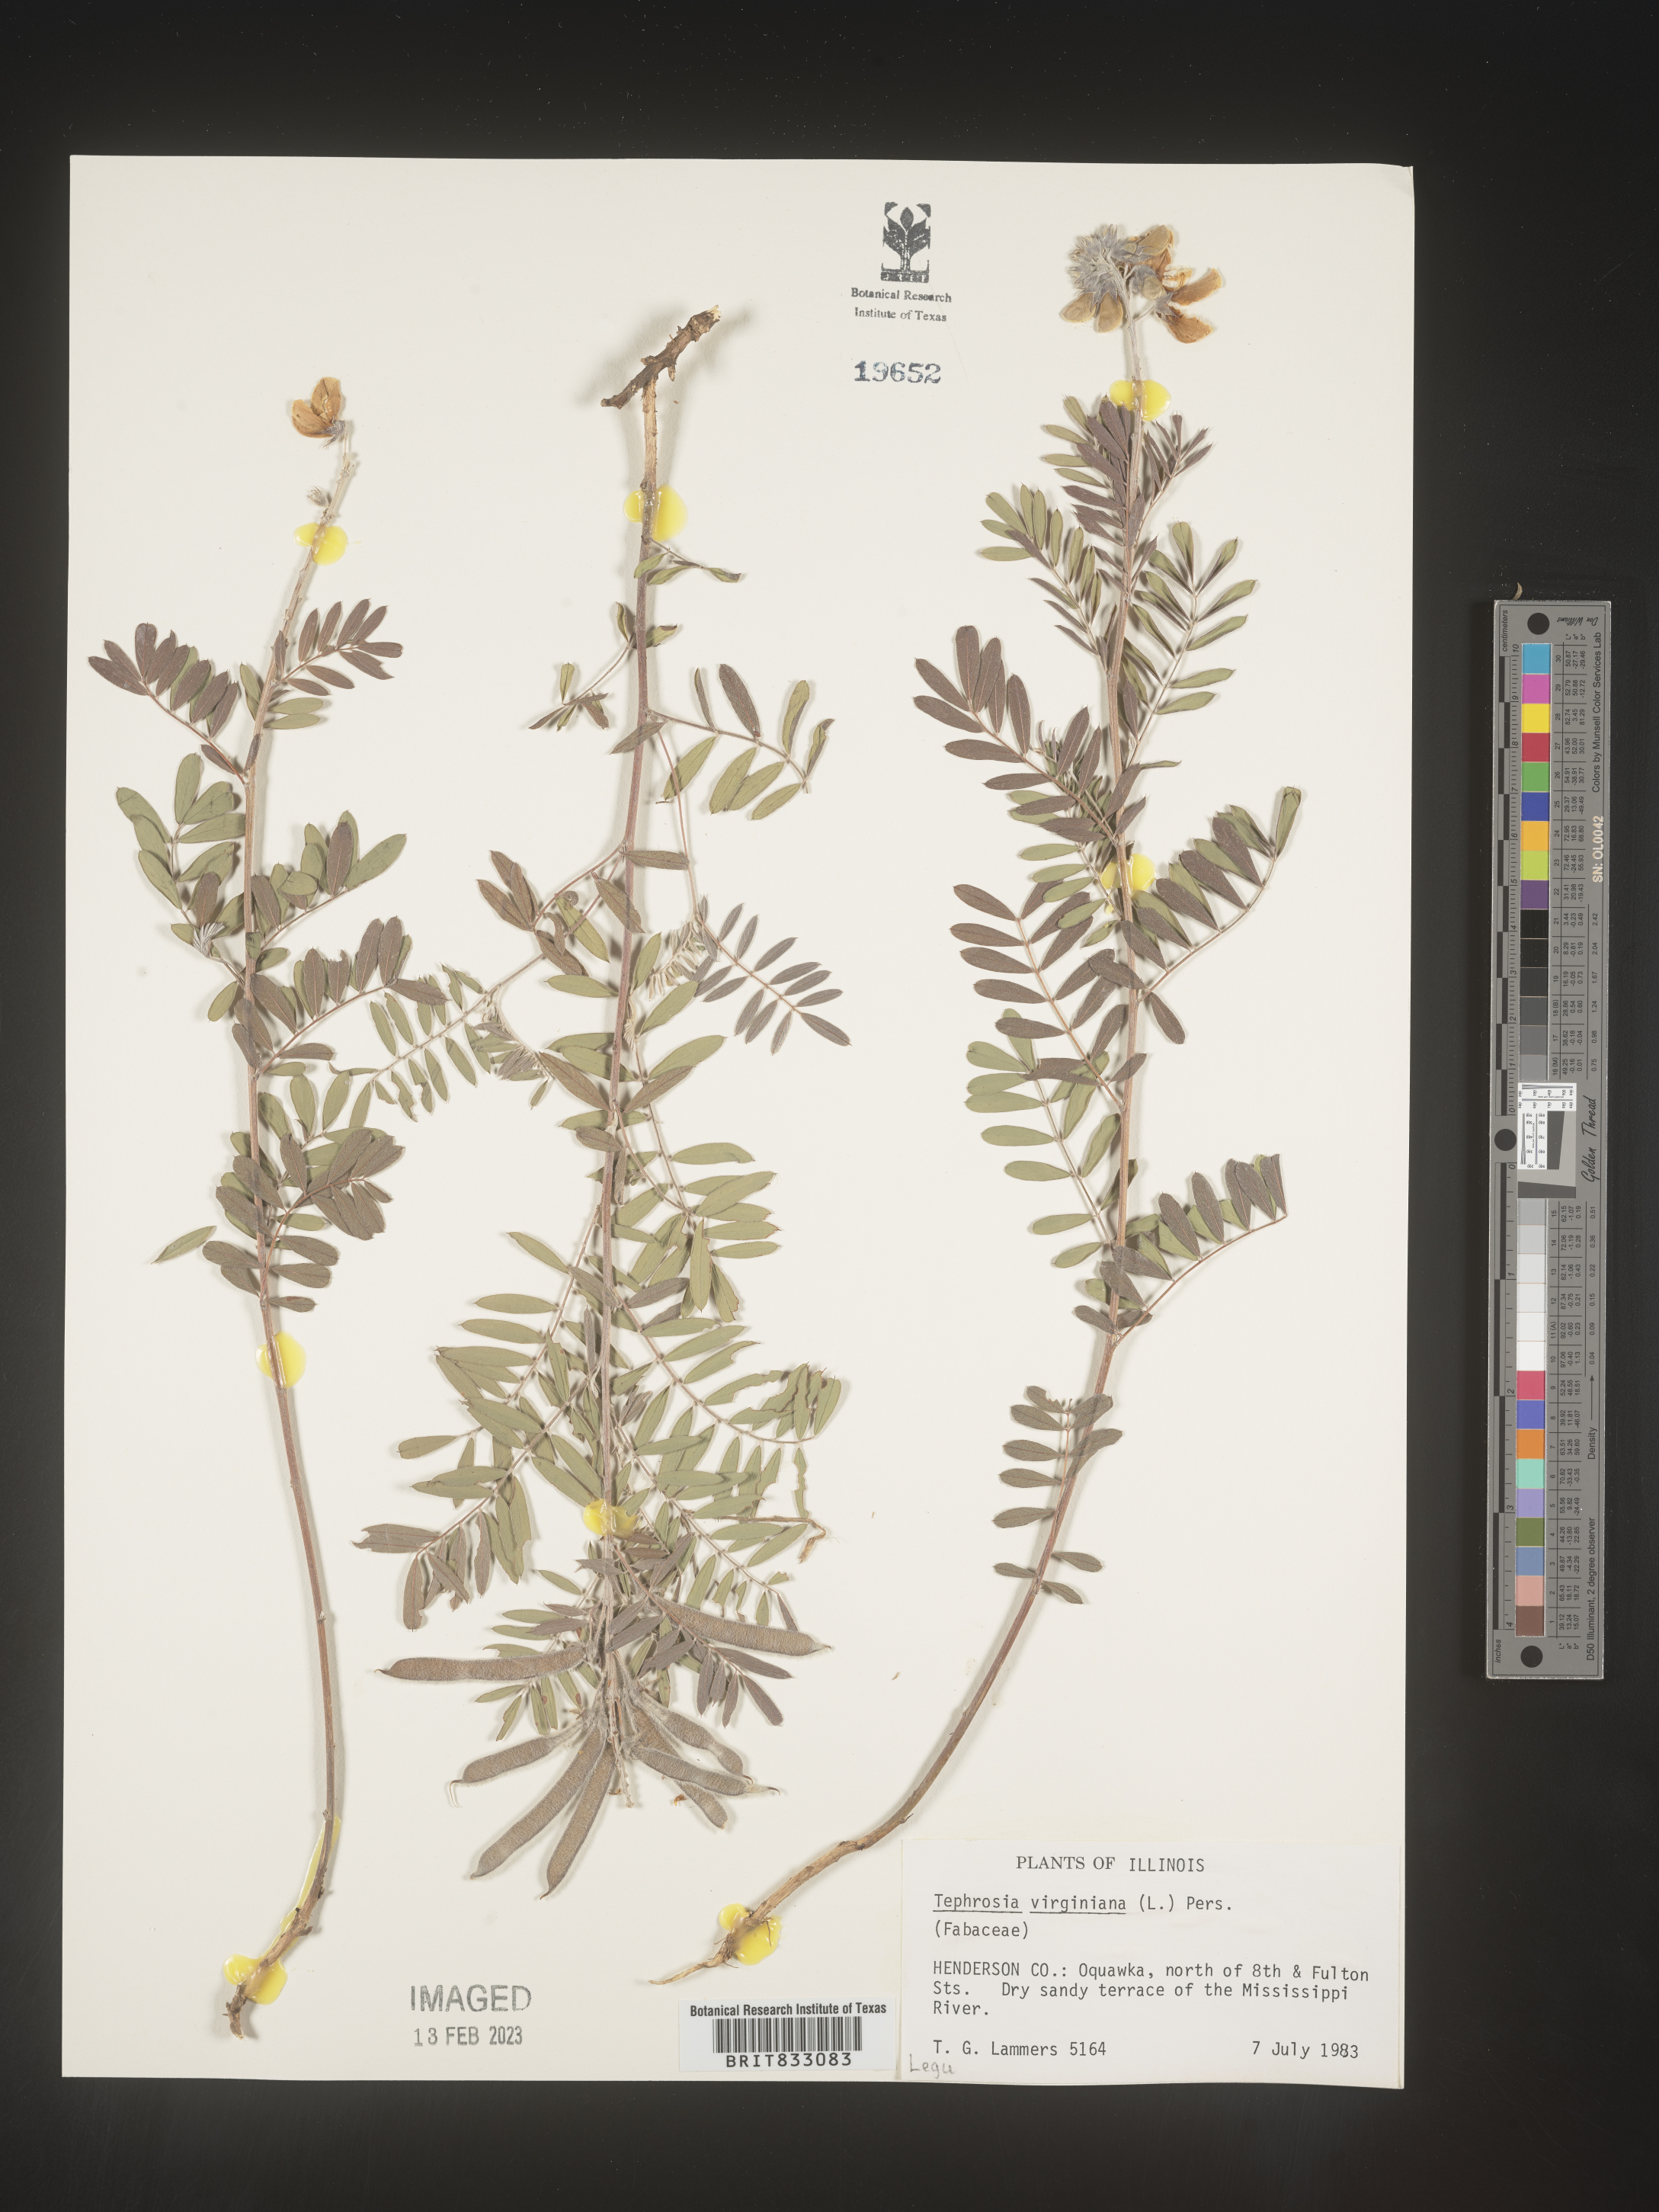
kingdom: Plantae
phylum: Tracheophyta
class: Magnoliopsida
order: Fabales
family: Fabaceae
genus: Tephrosia
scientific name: Tephrosia virginiana
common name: Rabbit-pea
